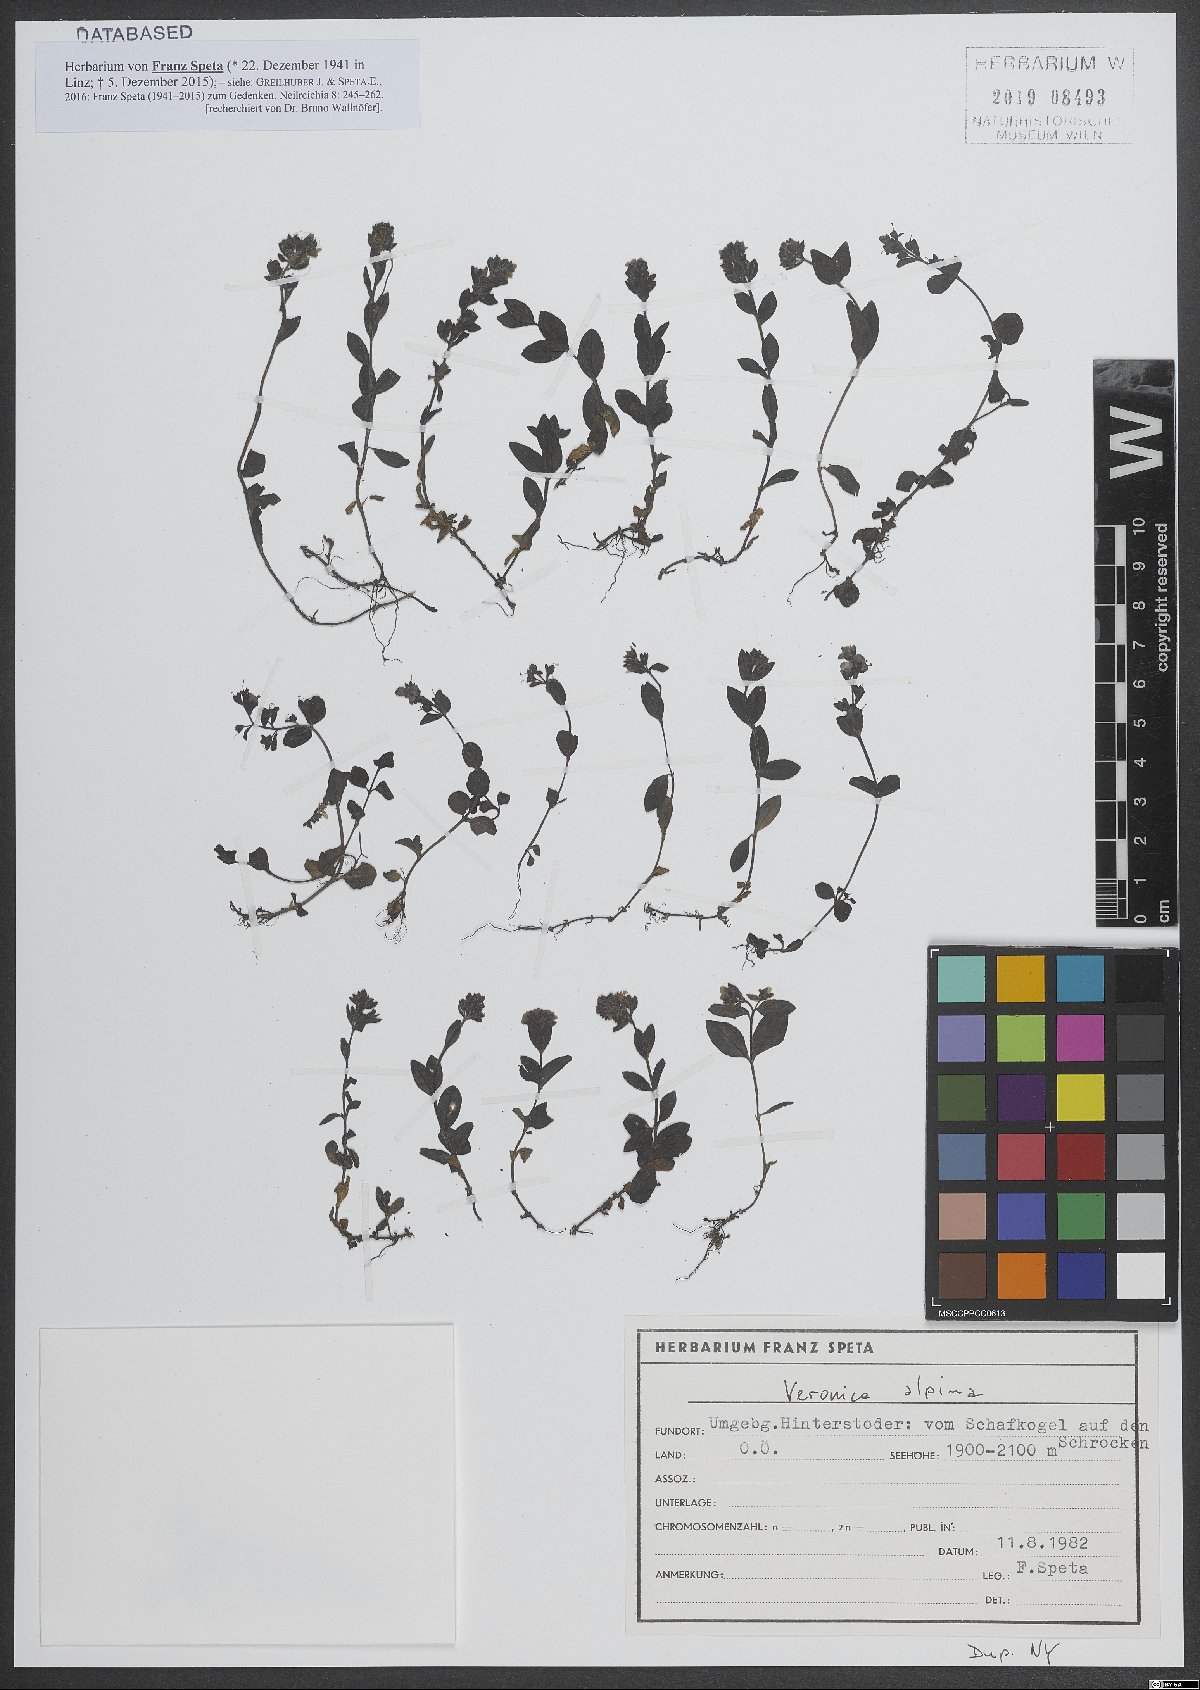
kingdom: Plantae
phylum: Tracheophyta
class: Magnoliopsida
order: Lamiales
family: Plantaginaceae
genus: Veronica
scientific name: Veronica alpina
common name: Alpine speedwell
